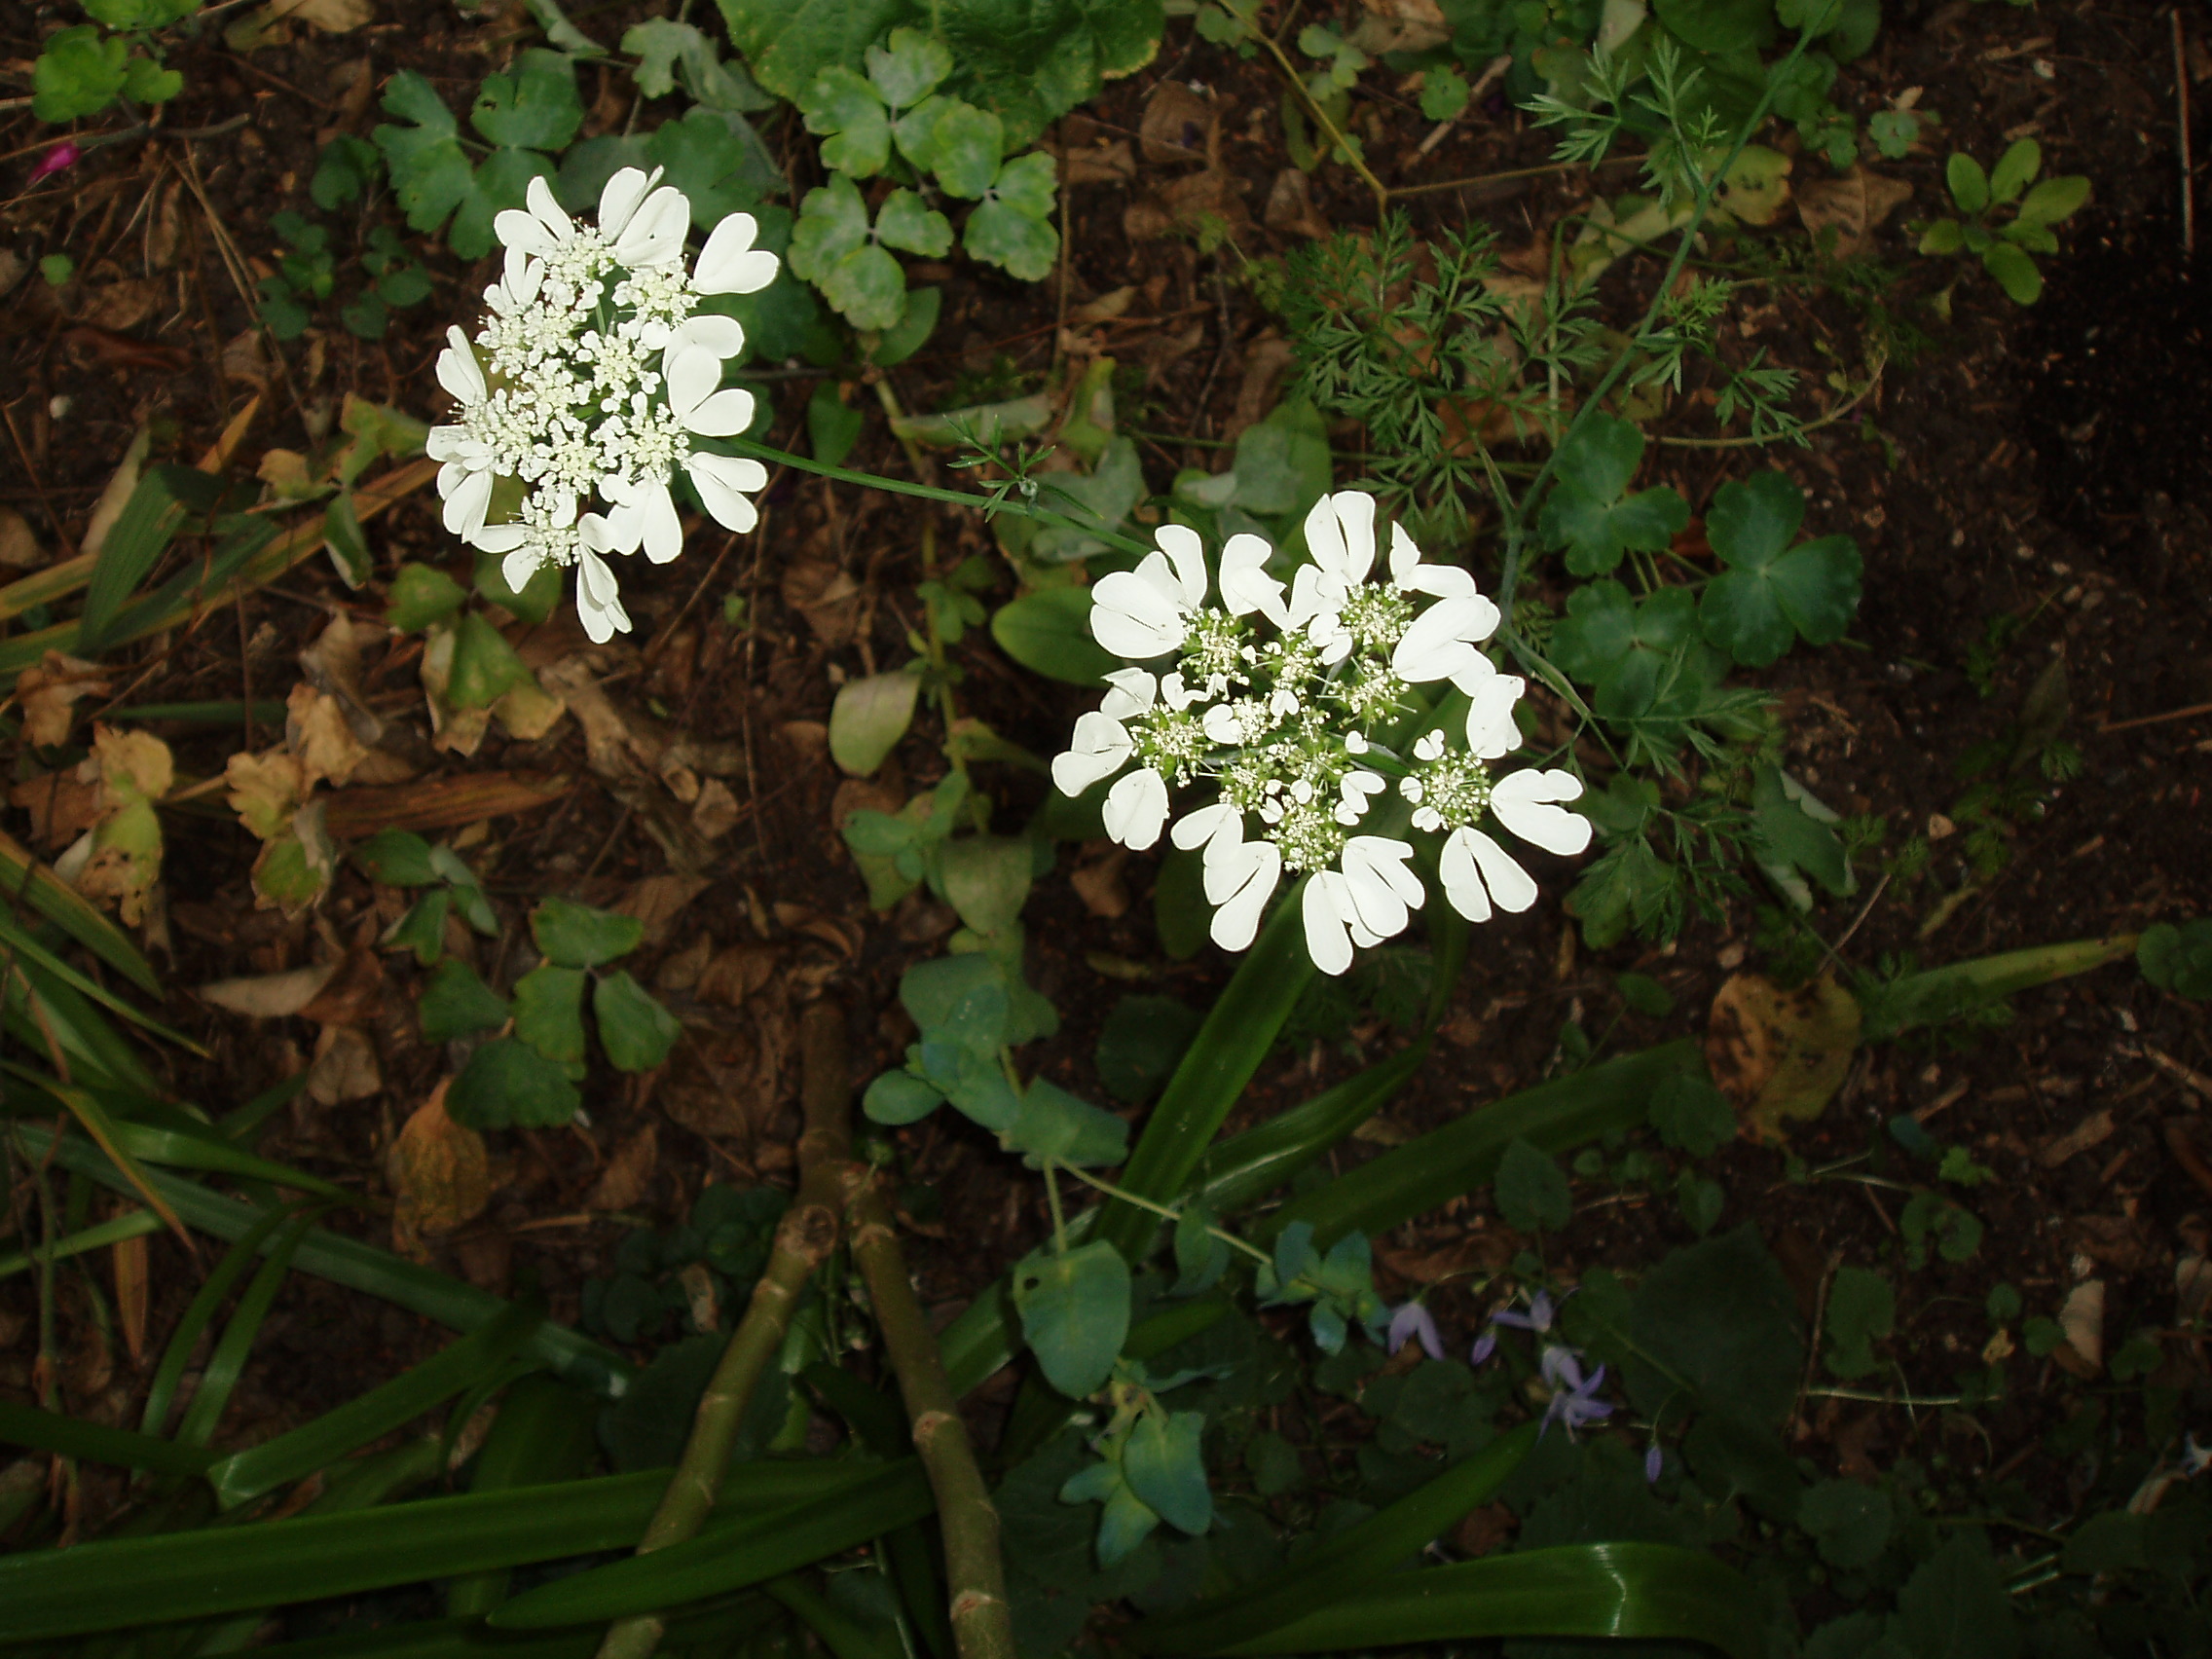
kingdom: Plantae
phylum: Tracheophyta
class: Magnoliopsida
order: Apiales
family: Apiaceae
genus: Orlaya
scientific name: Orlaya grandiflora
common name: White lace flower
